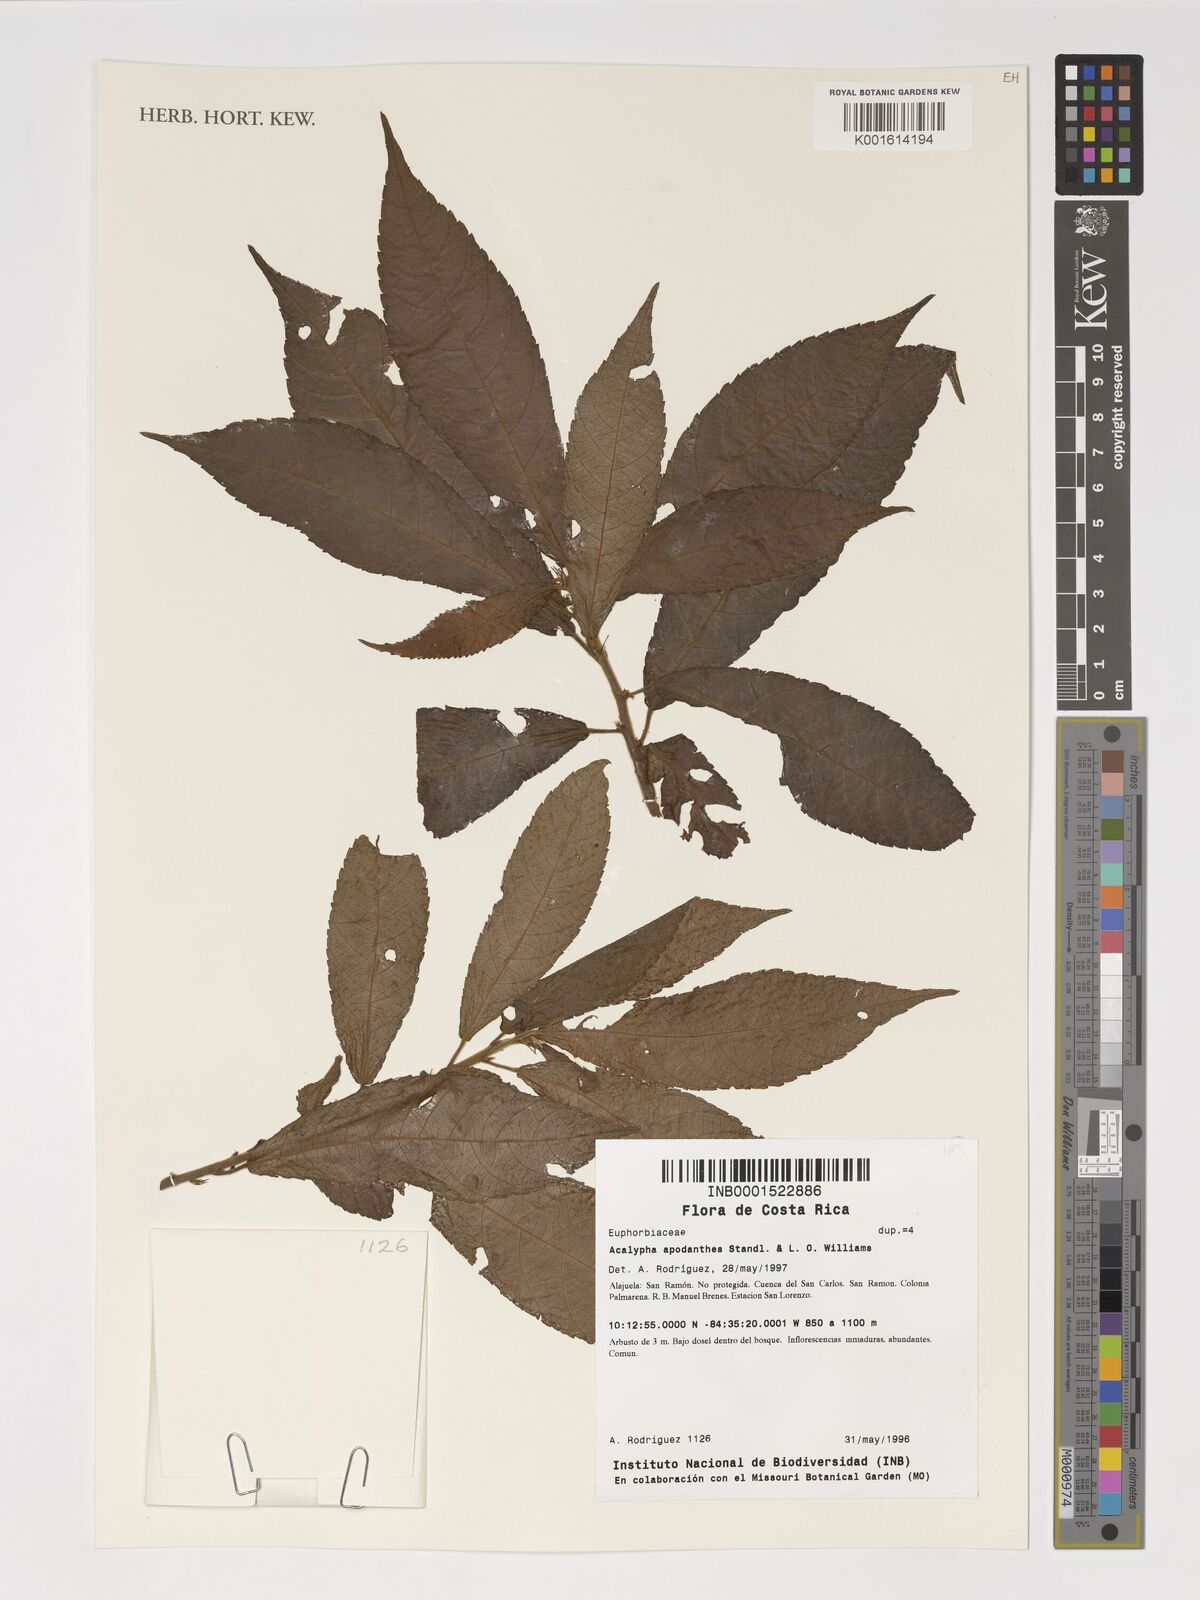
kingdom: Plantae
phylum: Tracheophyta
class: Magnoliopsida
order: Malpighiales
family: Euphorbiaceae
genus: Acalypha
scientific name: Acalypha apodanthes
